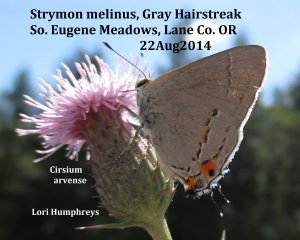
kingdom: Animalia
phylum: Arthropoda
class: Insecta
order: Lepidoptera
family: Lycaenidae
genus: Strymon
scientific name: Strymon melinus
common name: Gray Hairstreak
